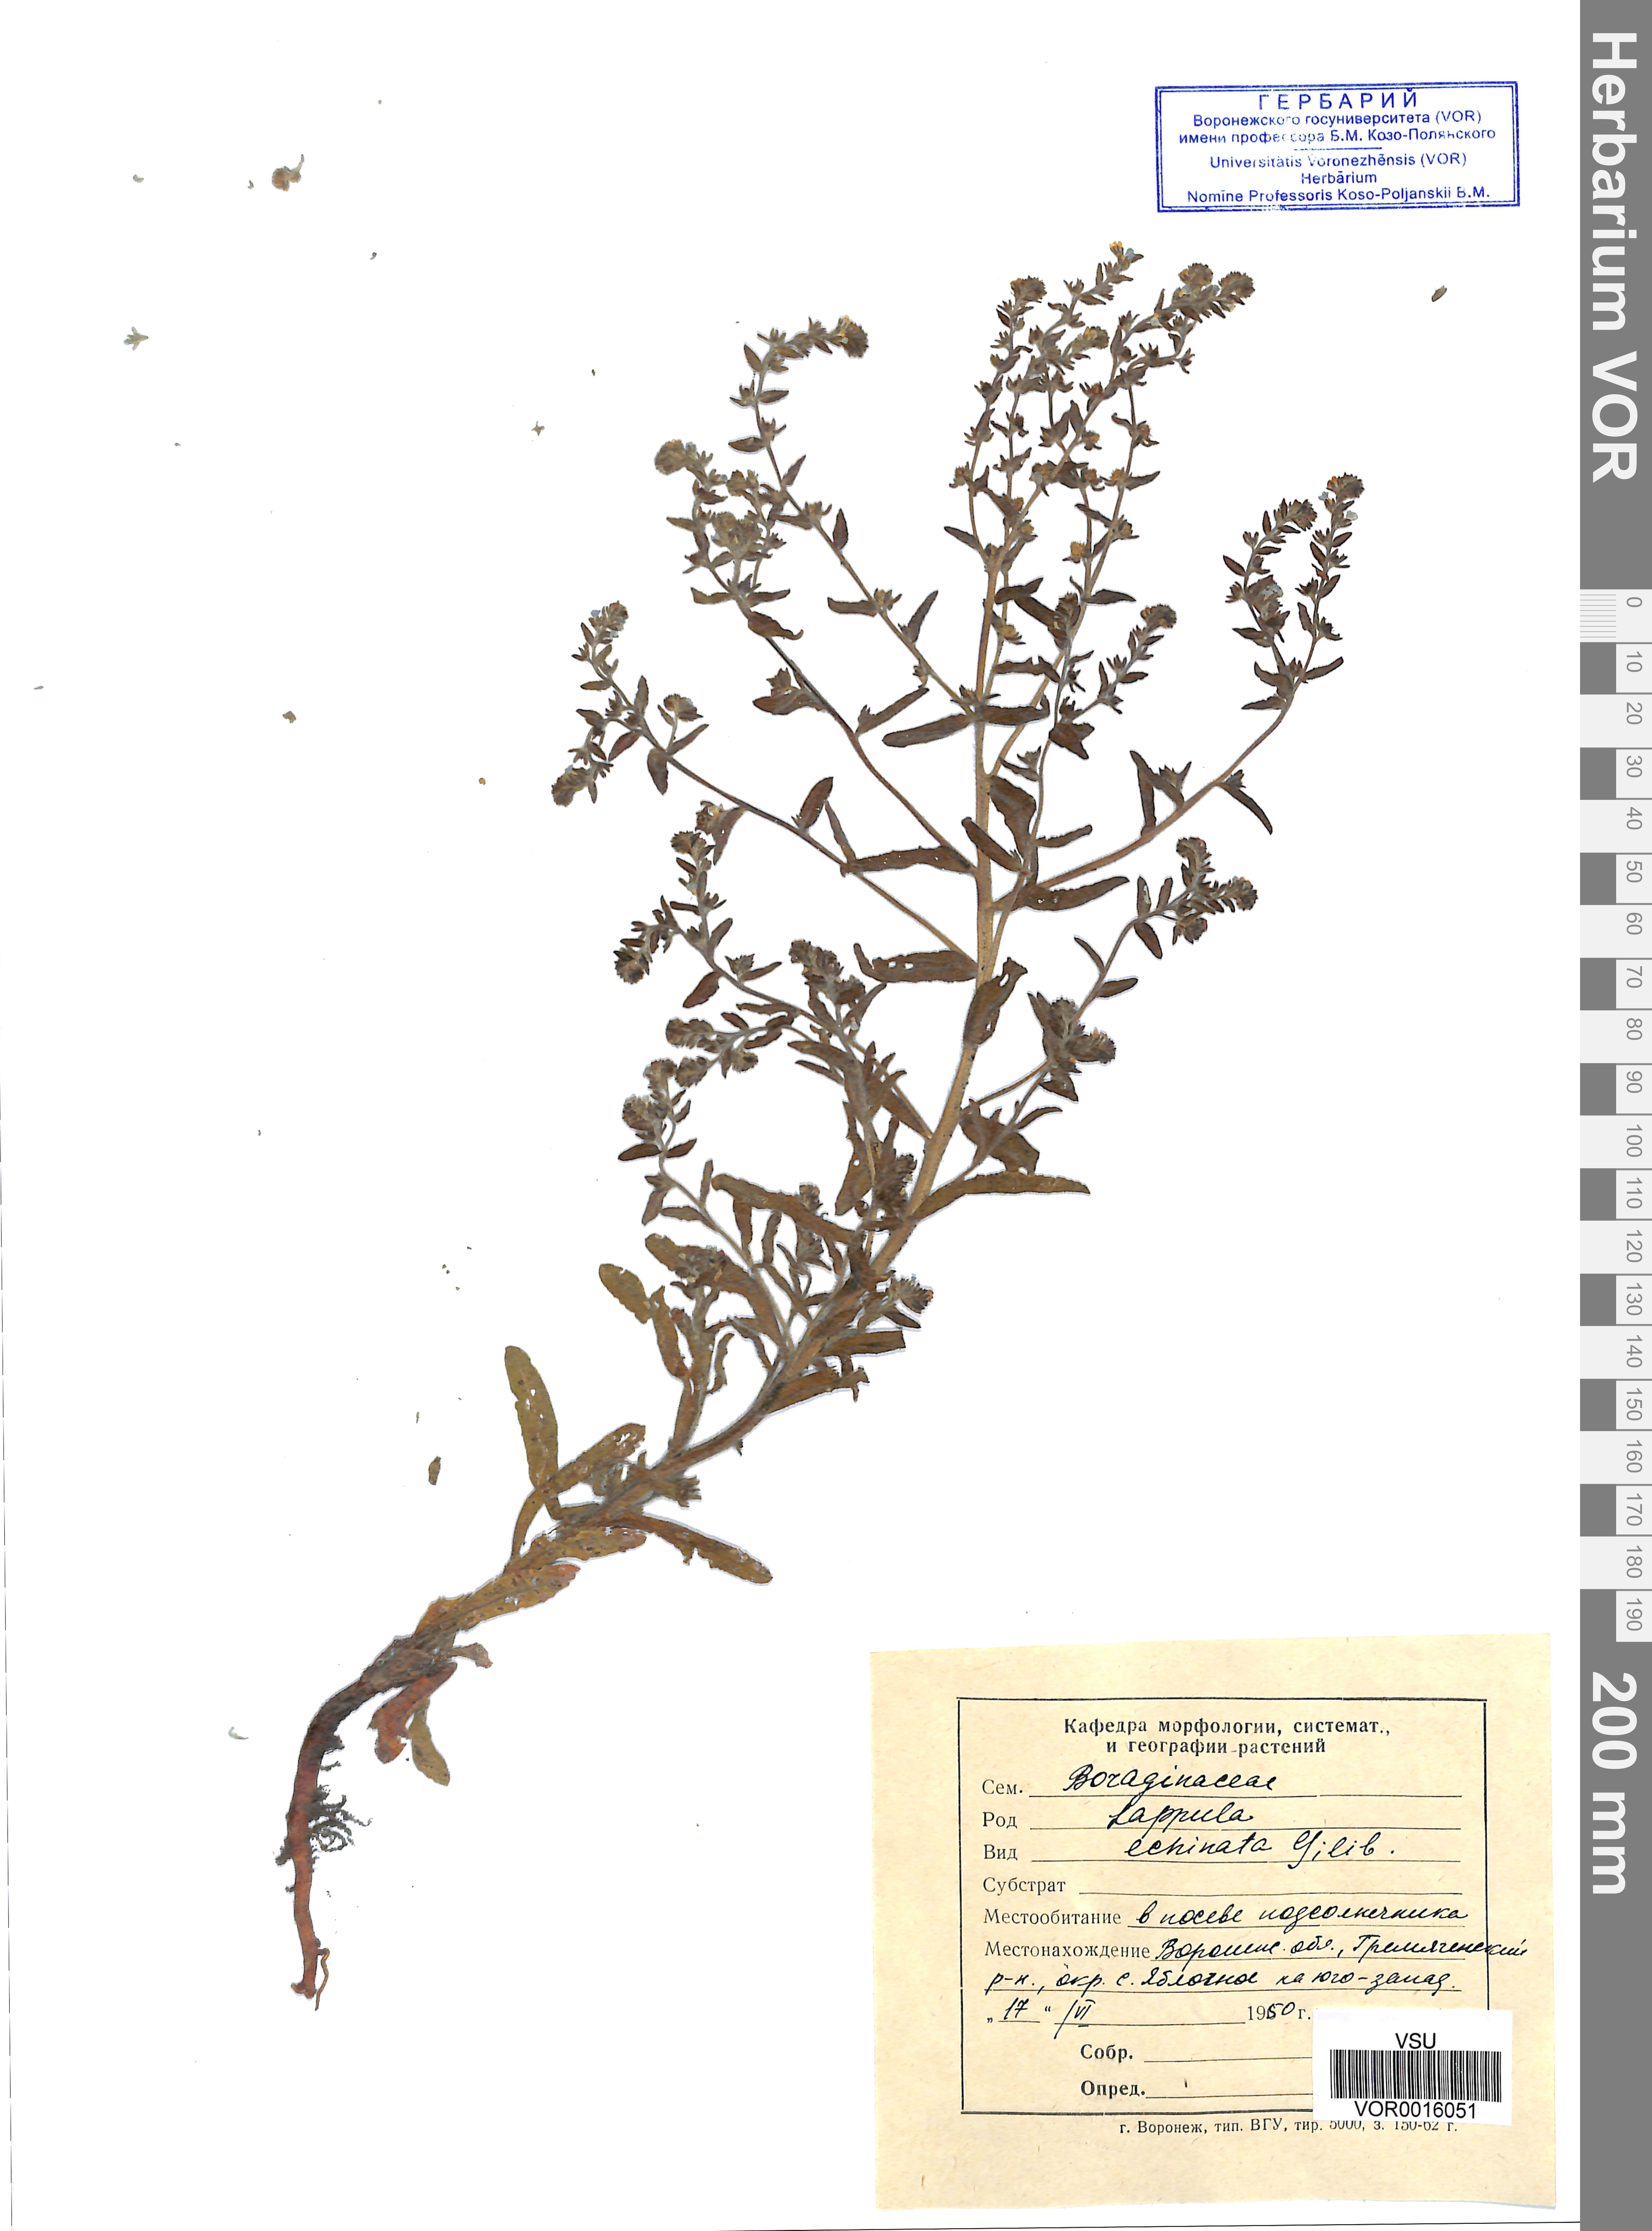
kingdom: Plantae
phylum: Tracheophyta
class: Magnoliopsida
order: Boraginales
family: Boraginaceae
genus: Lappula
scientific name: Lappula squarrosa
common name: European stickseed
